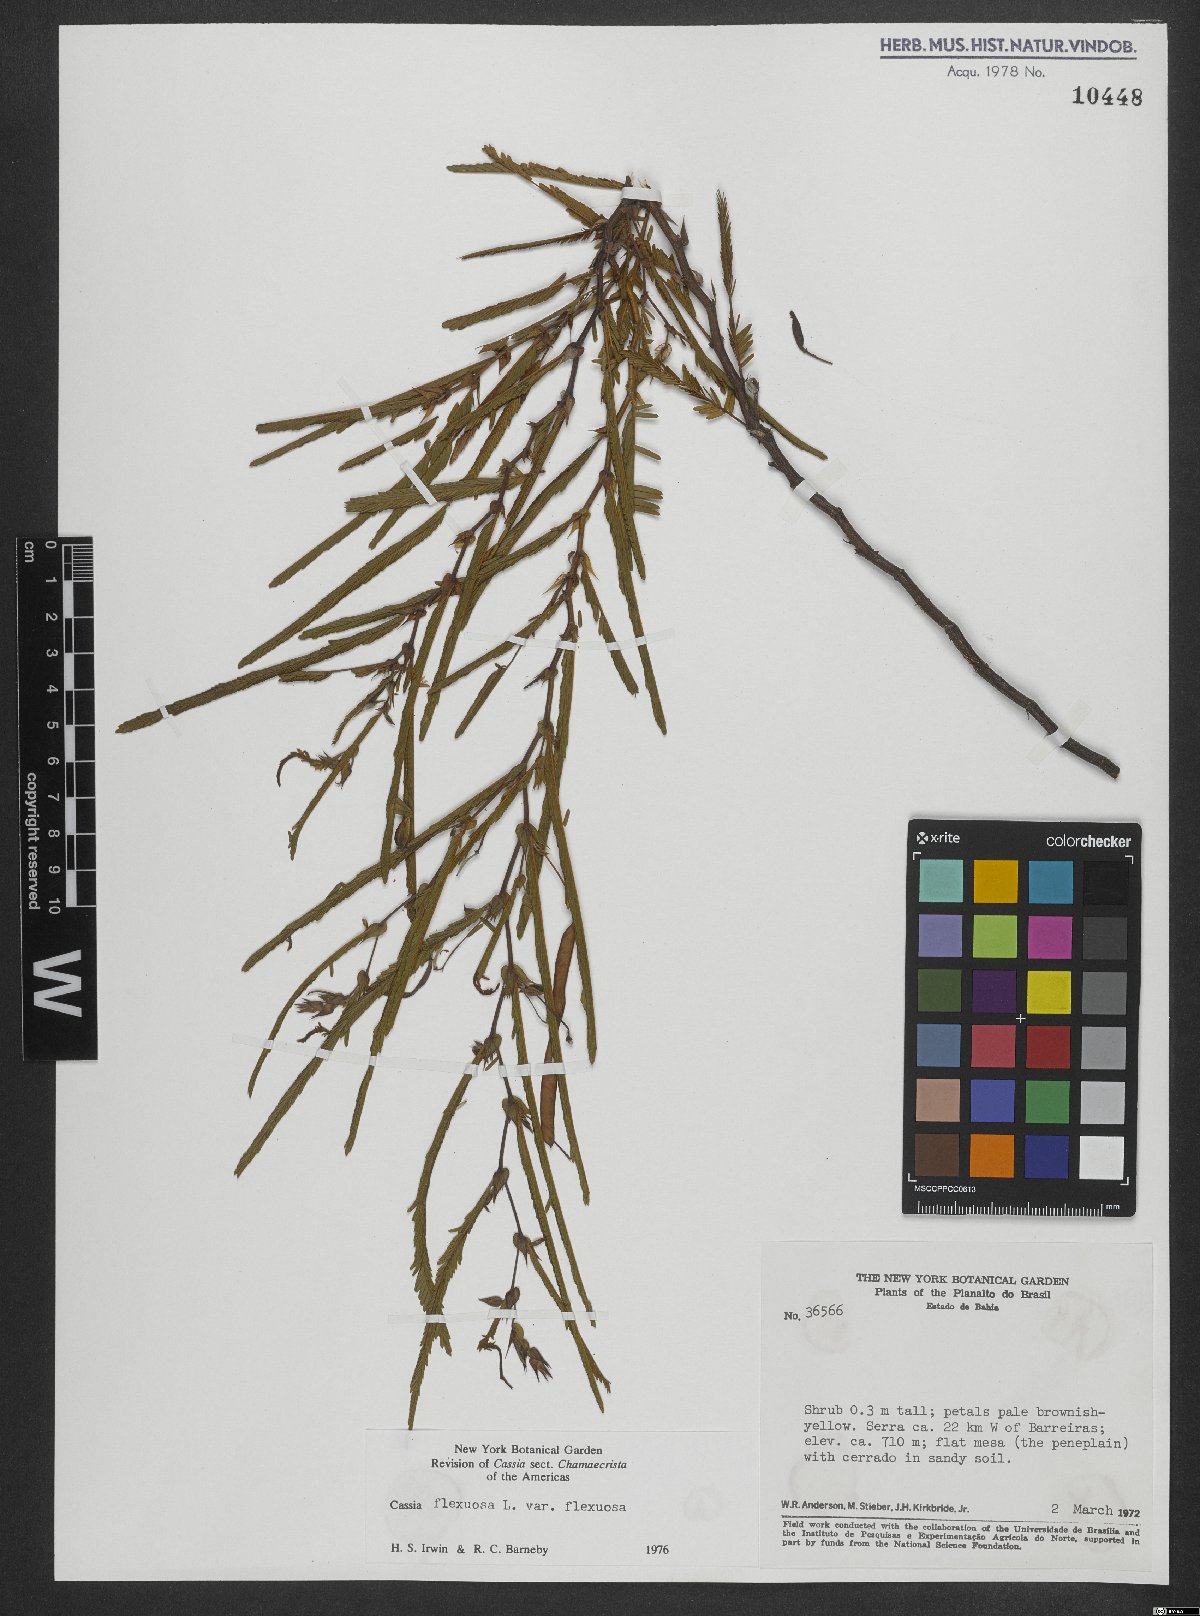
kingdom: Plantae
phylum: Tracheophyta
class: Magnoliopsida
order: Fabales
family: Fabaceae
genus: Chamaecrista
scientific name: Chamaecrista flexuosa
